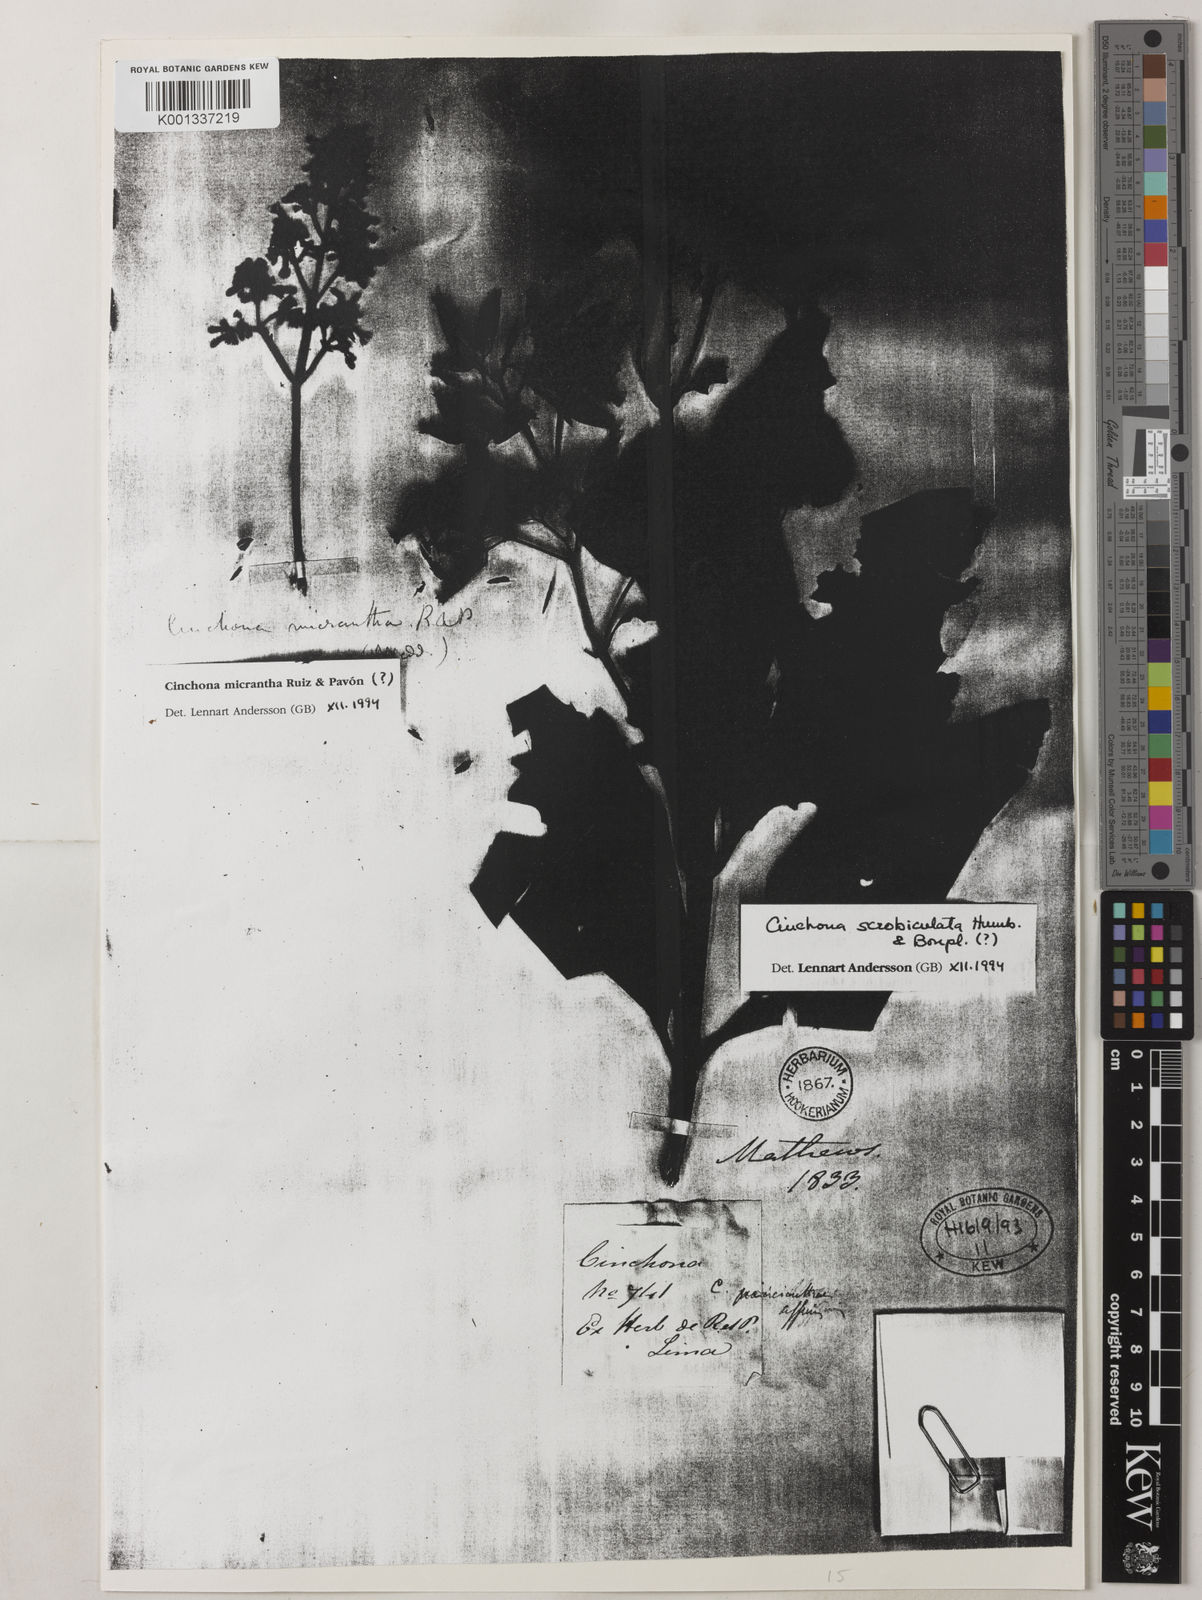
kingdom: Plantae
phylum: Tracheophyta
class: Magnoliopsida
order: Gentianales
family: Rubiaceae
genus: Cinchona
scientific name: Cinchona scrobiculata
